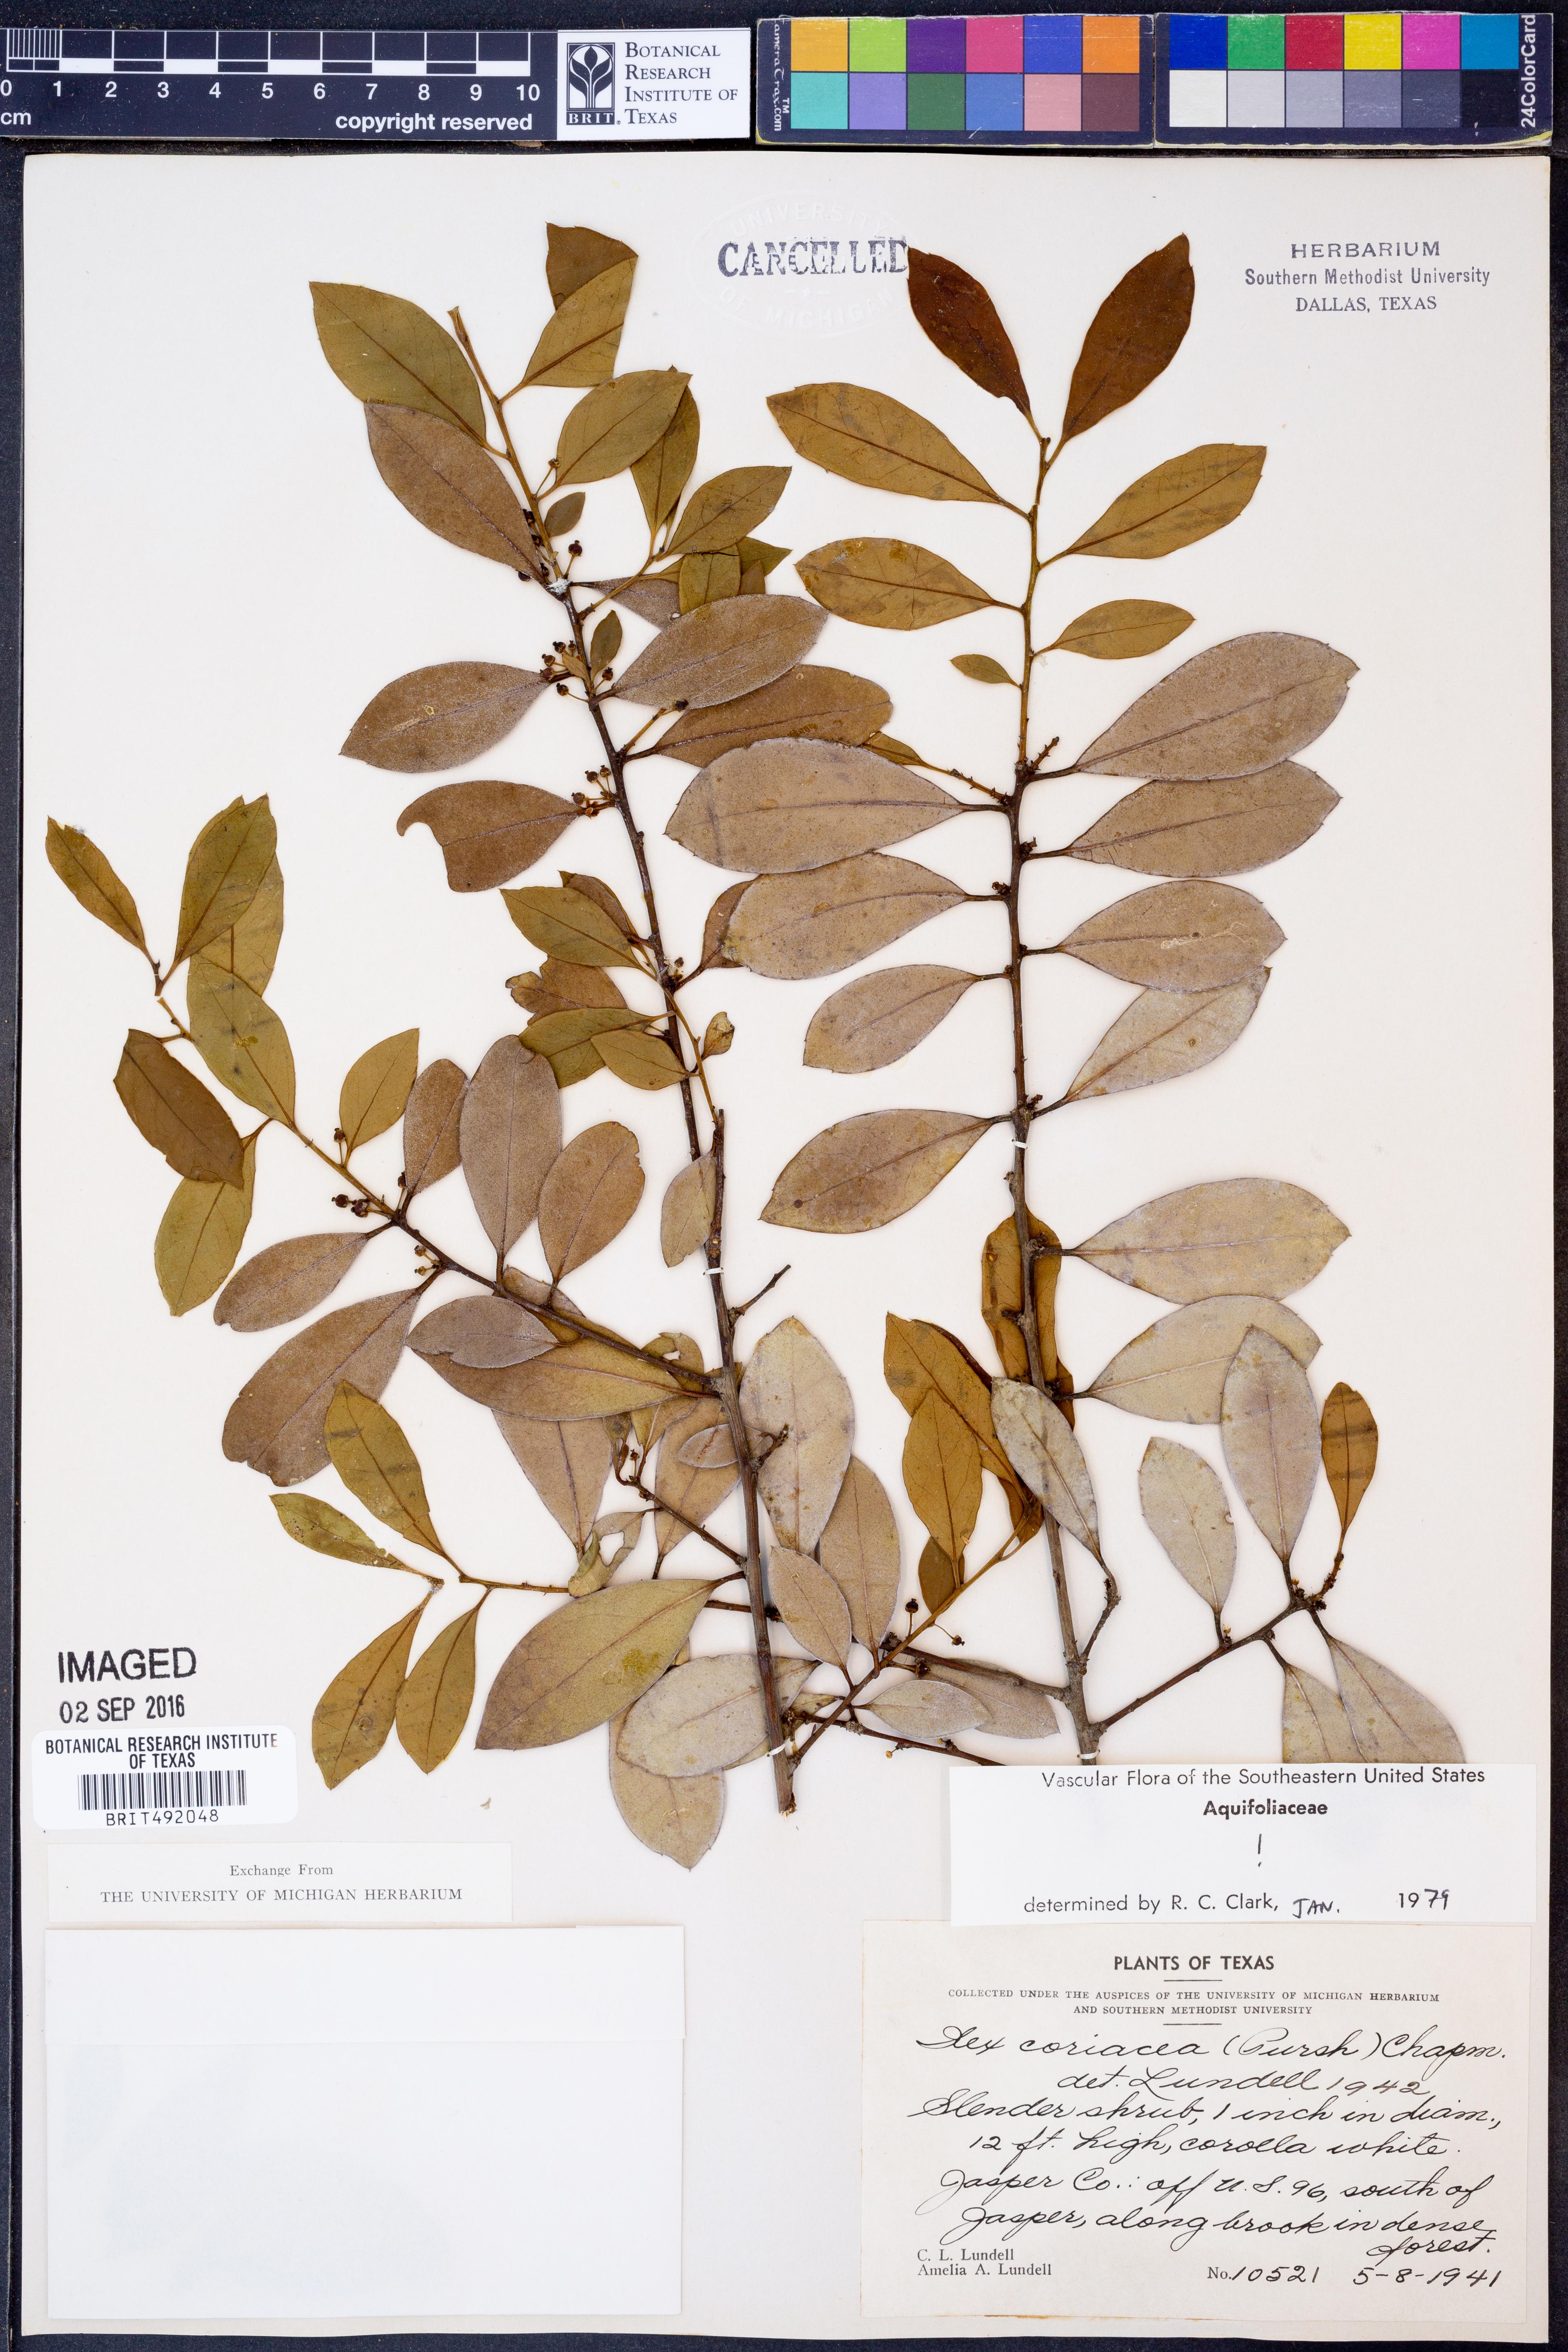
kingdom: Plantae
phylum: Tracheophyta
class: Magnoliopsida
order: Aquifoliales
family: Aquifoliaceae
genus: Ilex
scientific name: Ilex coriacea
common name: Sweet gallberry
